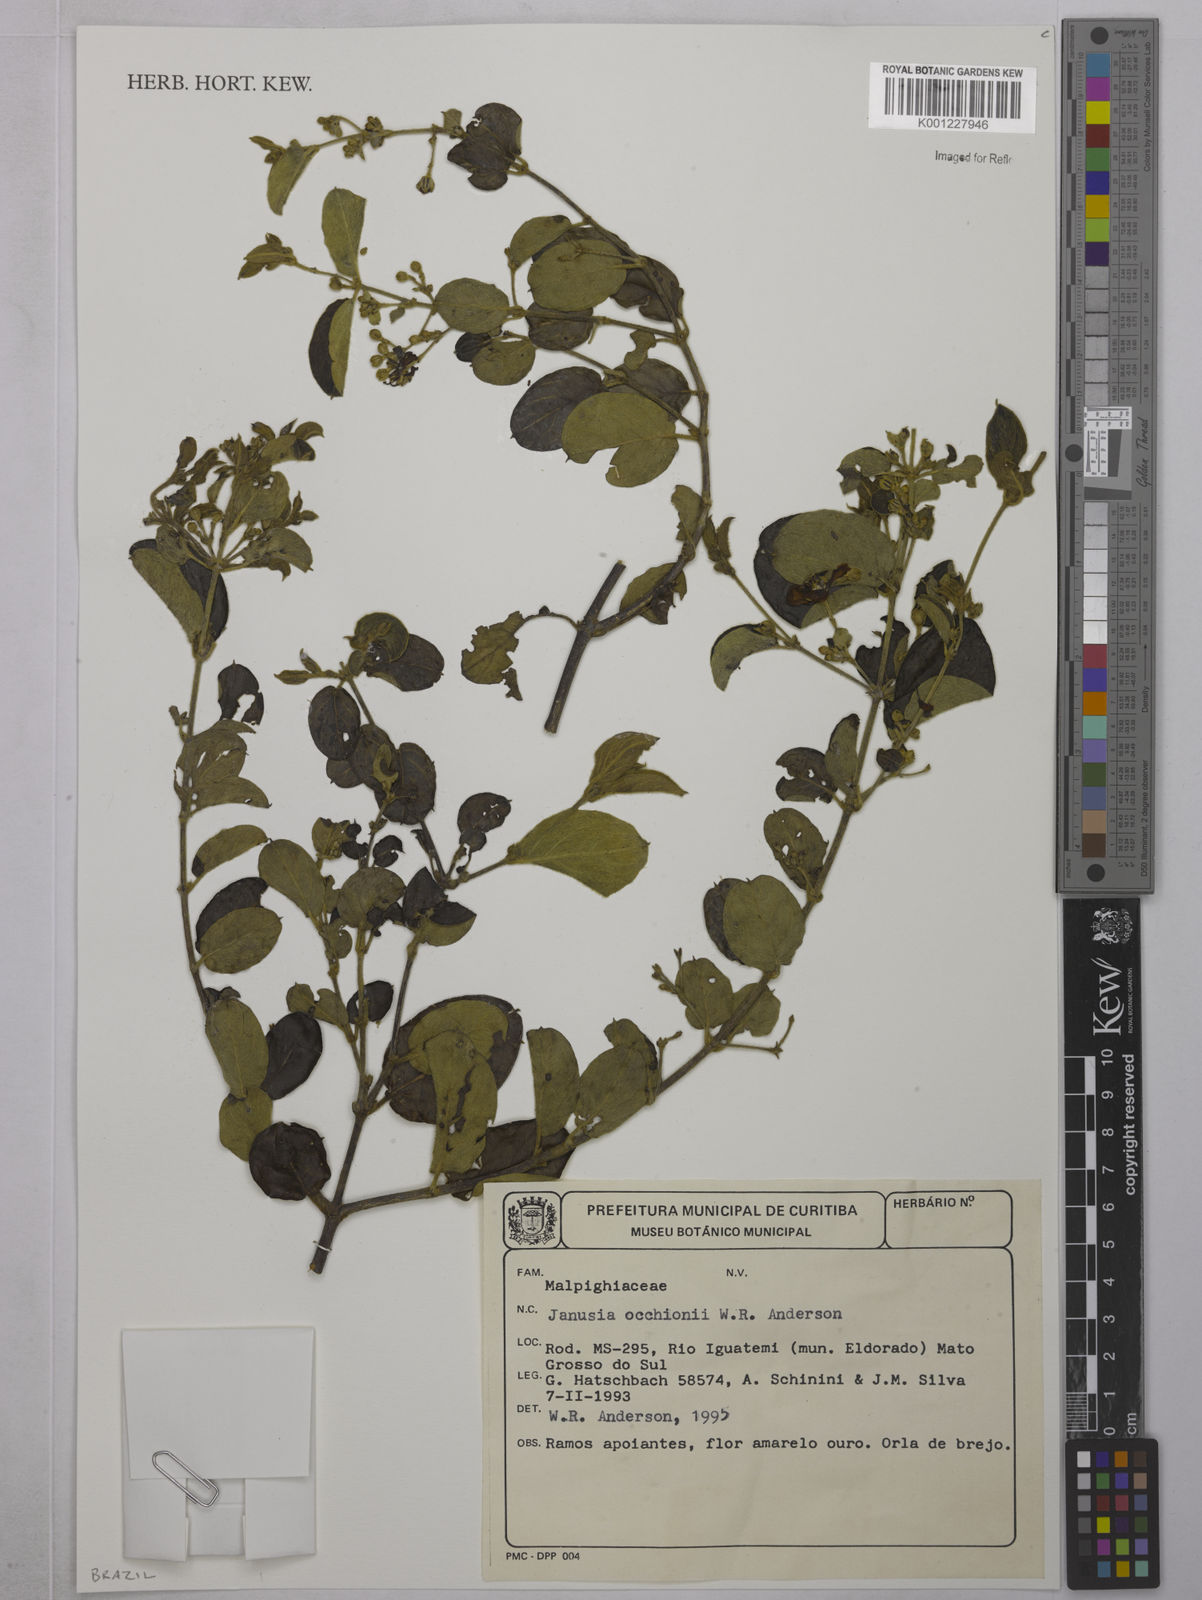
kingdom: Plantae
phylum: Tracheophyta
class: Magnoliopsida
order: Malpighiales
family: Malpighiaceae
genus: Janusia
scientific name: Janusia occhionii
